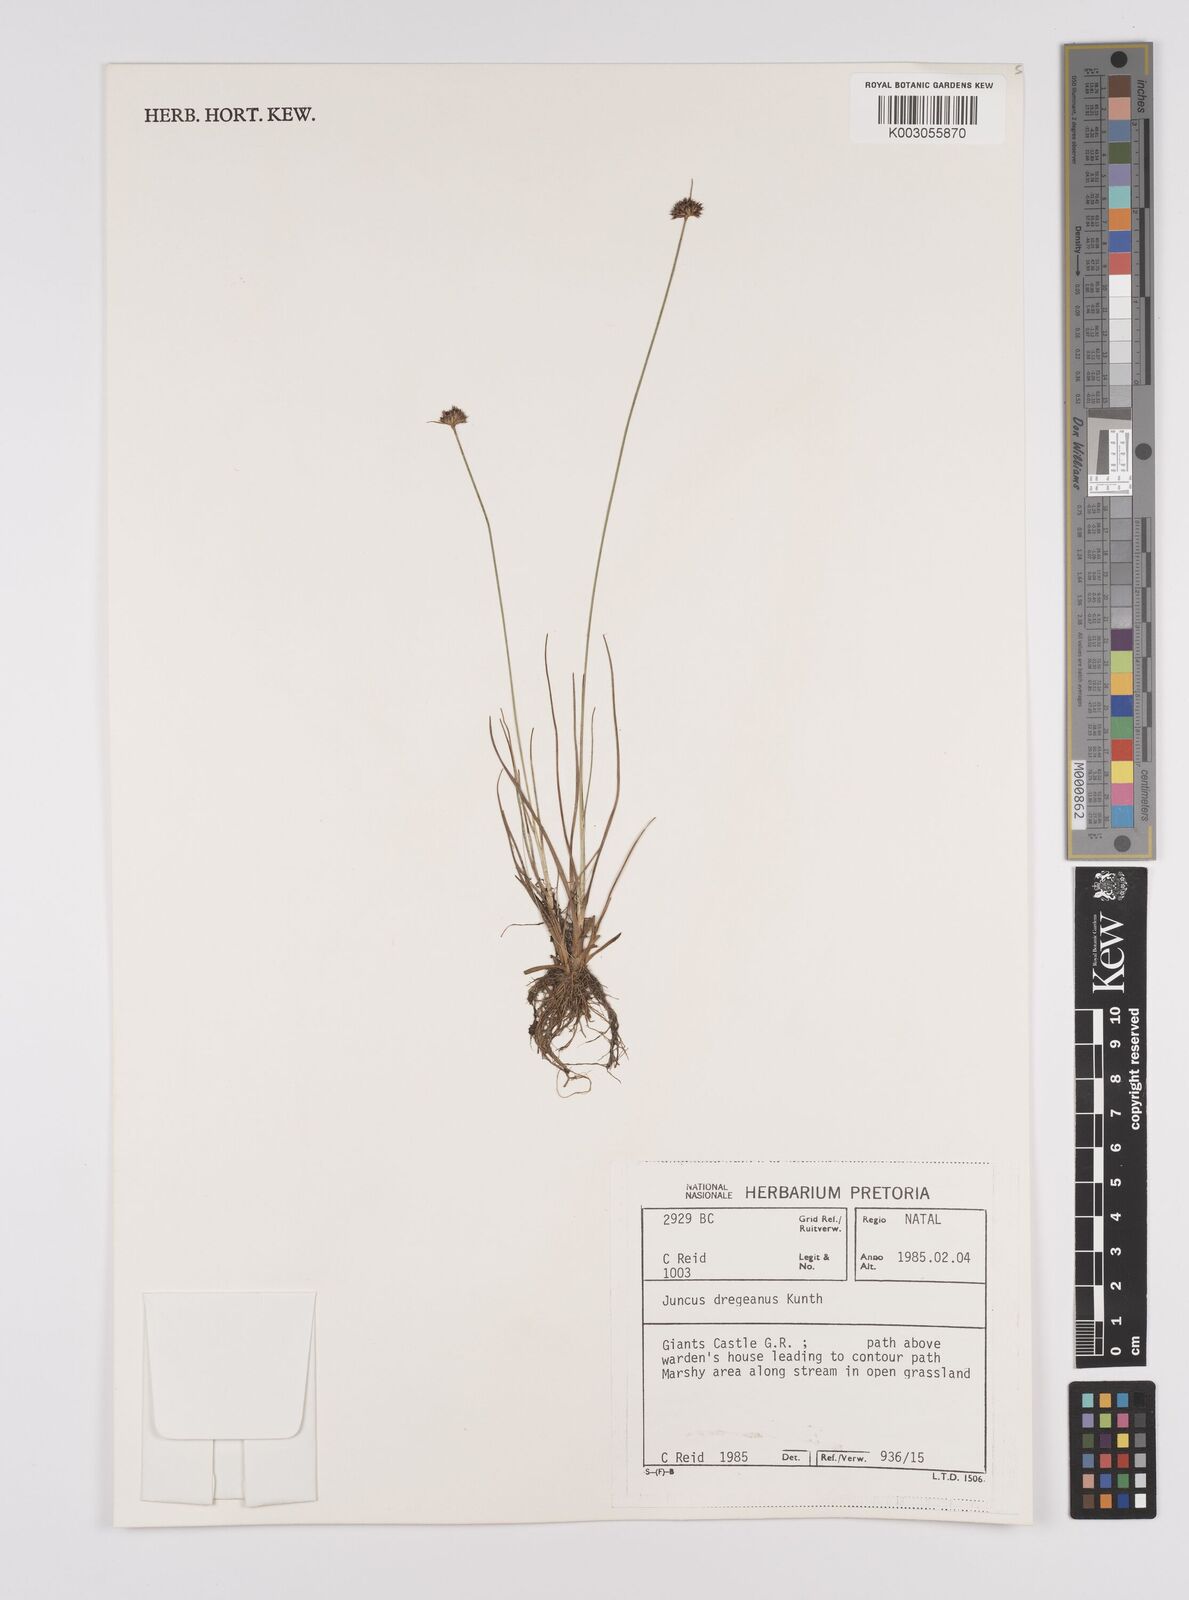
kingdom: Plantae
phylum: Tracheophyta
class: Liliopsida
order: Poales
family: Juncaceae
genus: Juncus
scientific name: Juncus dregeanus
